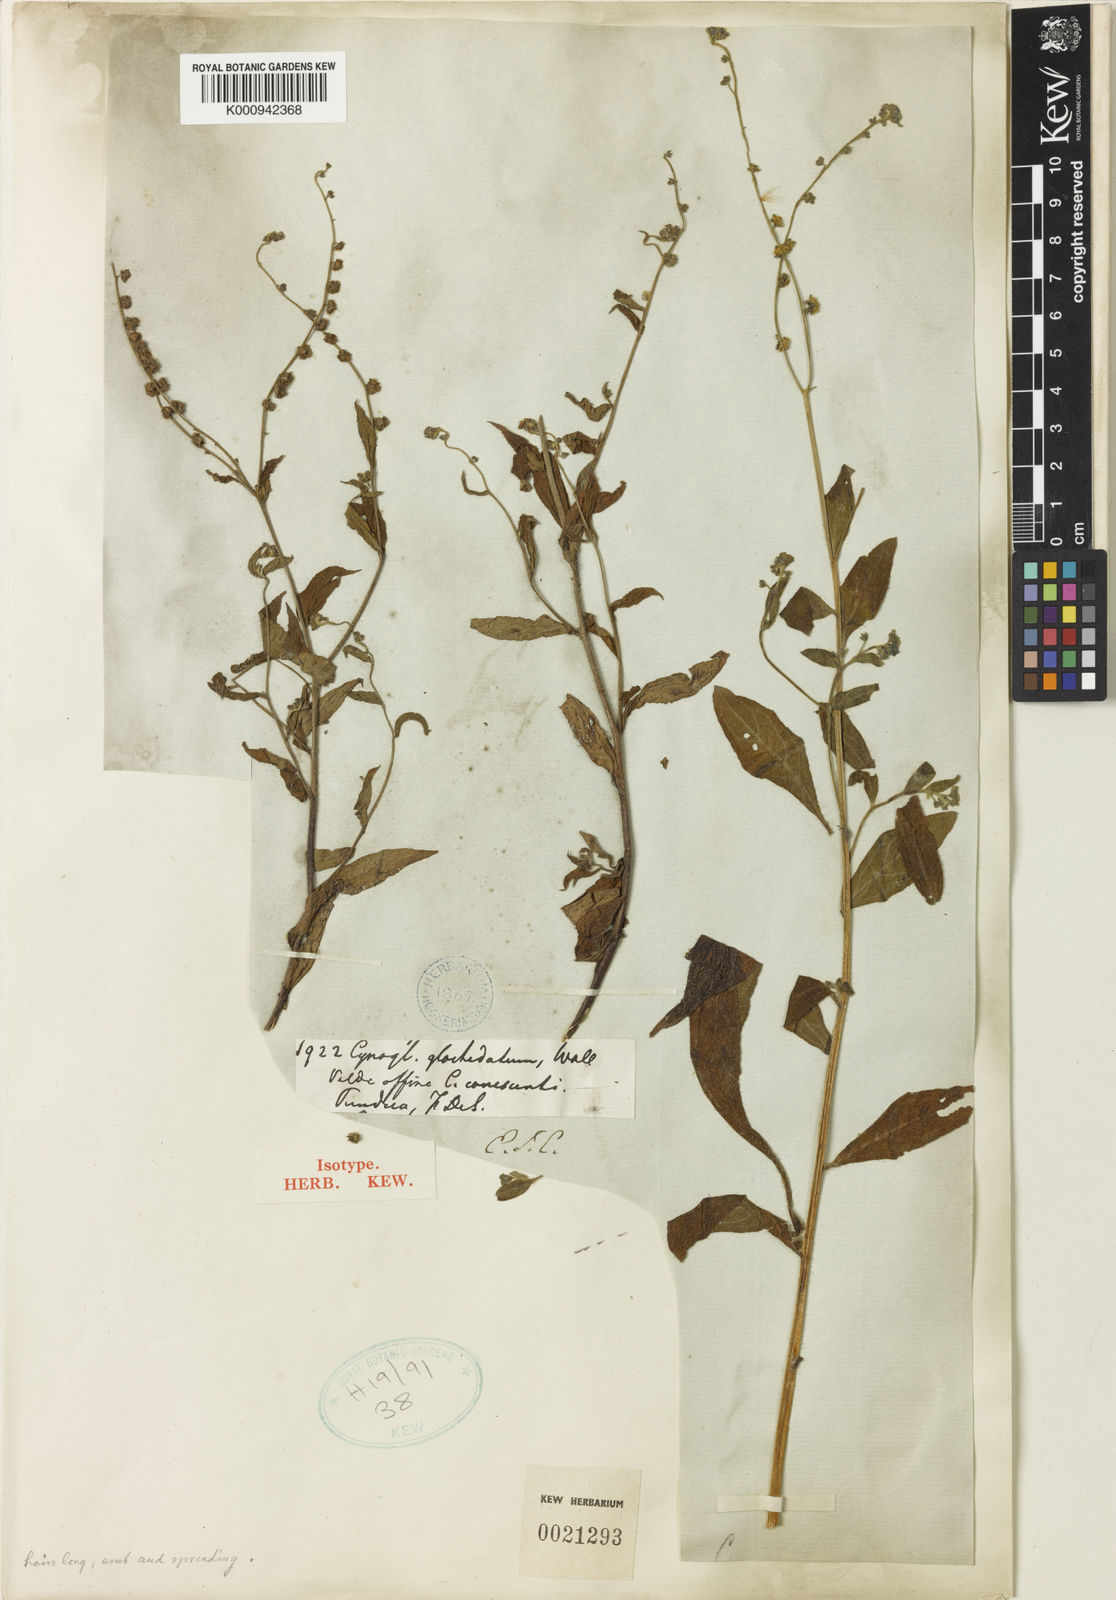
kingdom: Plantae
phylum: Tracheophyta
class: Magnoliopsida
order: Boraginales
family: Boraginaceae
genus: Cynoglossum
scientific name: Cynoglossum
